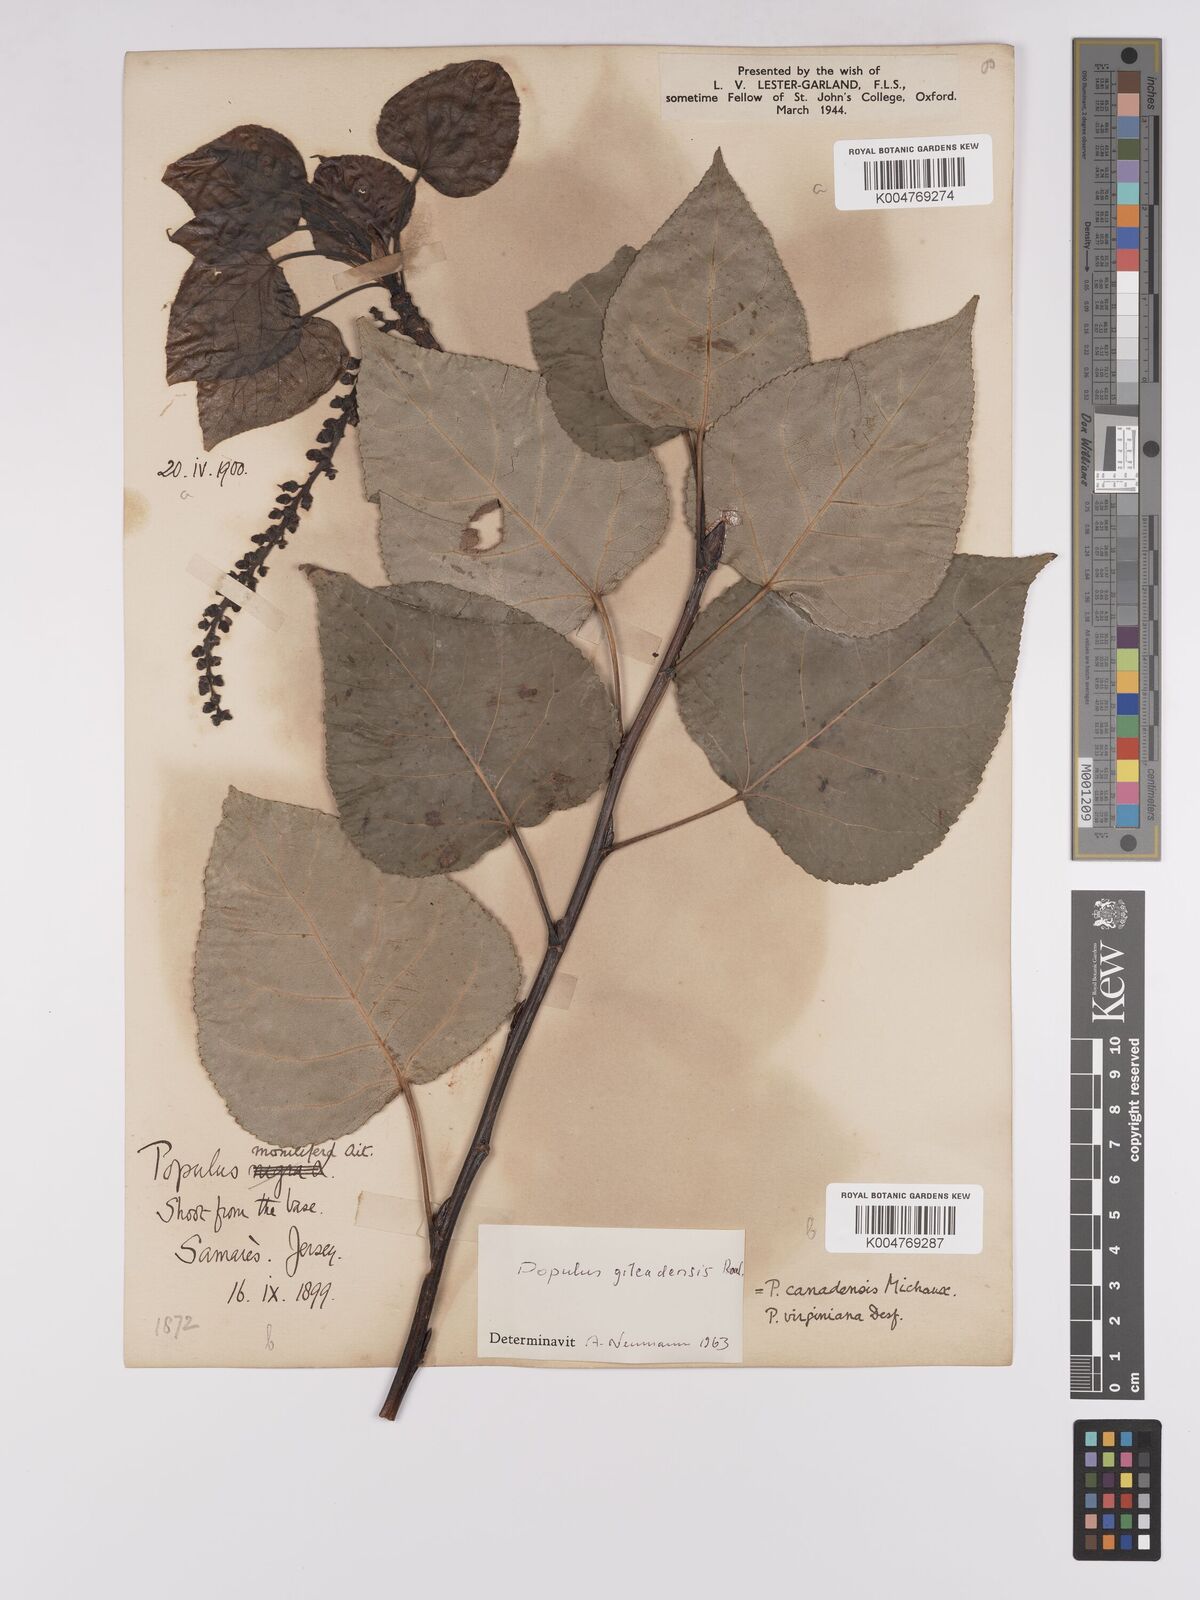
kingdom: Plantae
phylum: Tracheophyta
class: Magnoliopsida
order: Malpighiales
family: Salicaceae
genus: Populus
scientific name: Populus jackii
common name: Balm-of-gilead
